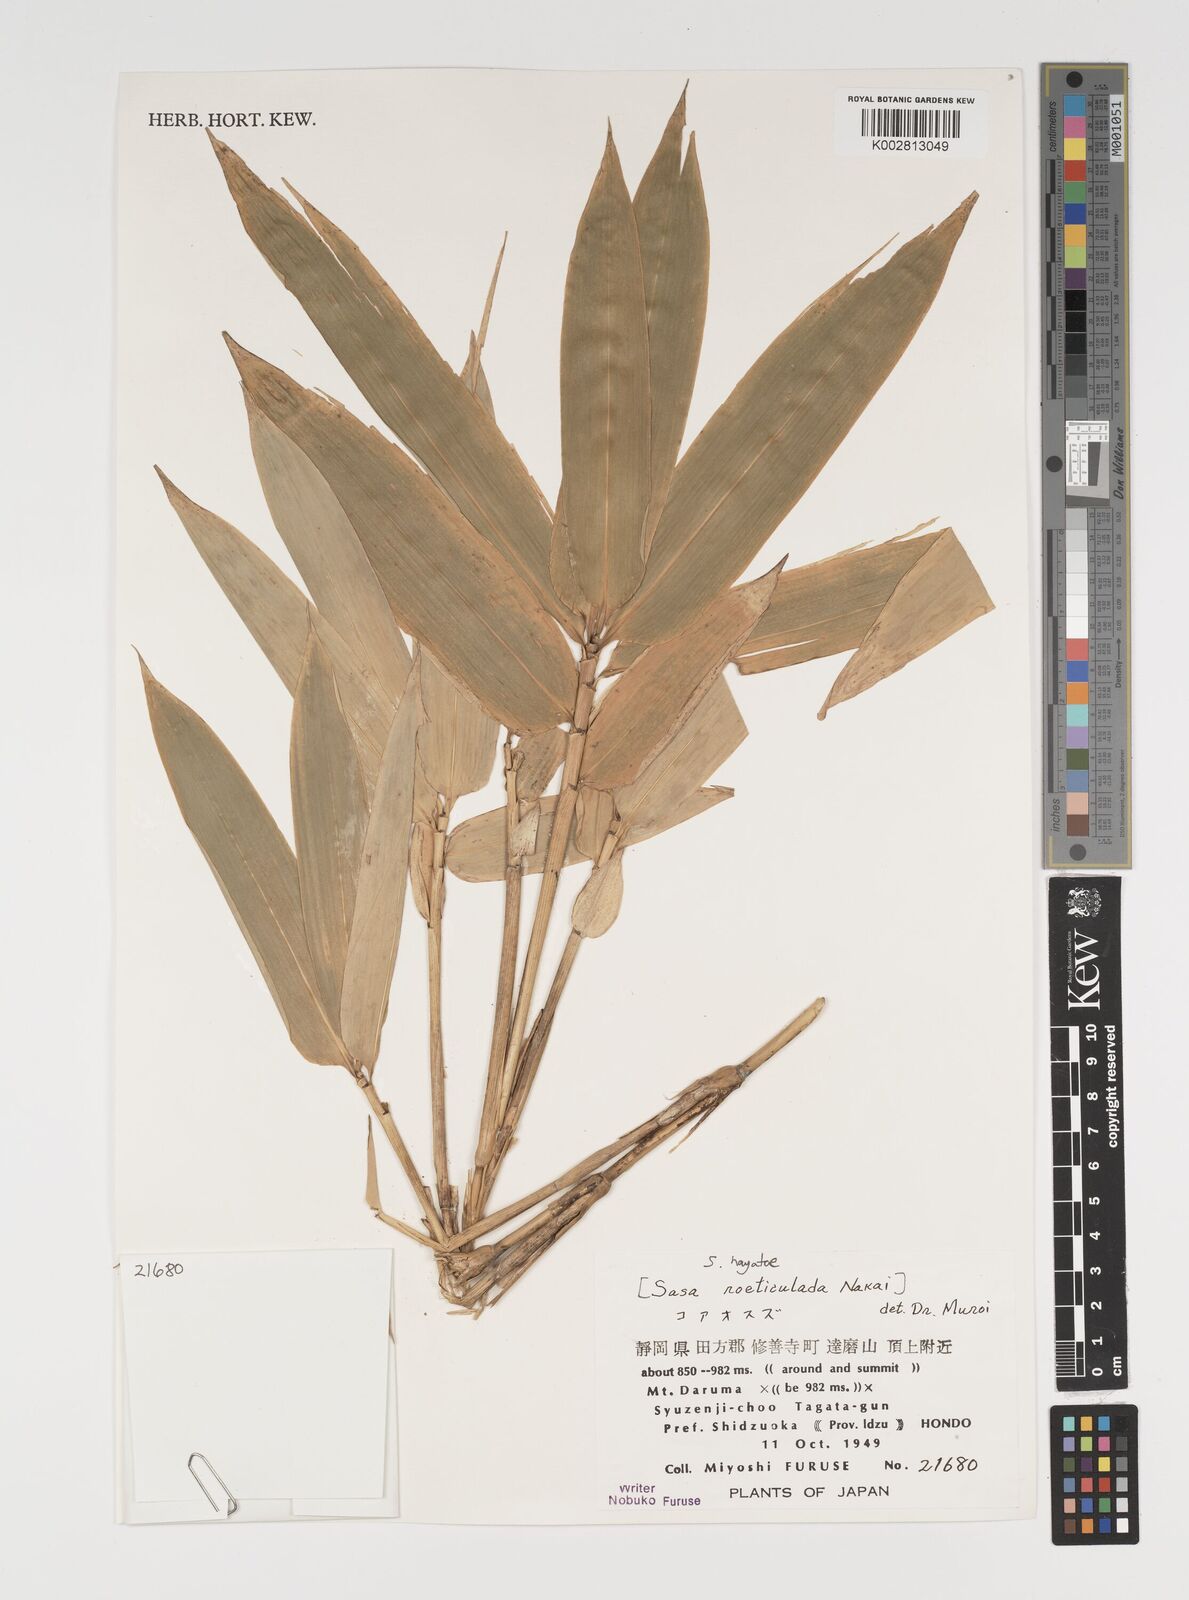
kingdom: Plantae
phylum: Tracheophyta
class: Liliopsida
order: Poales
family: Poaceae
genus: Sasa
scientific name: Sasa hayatae
